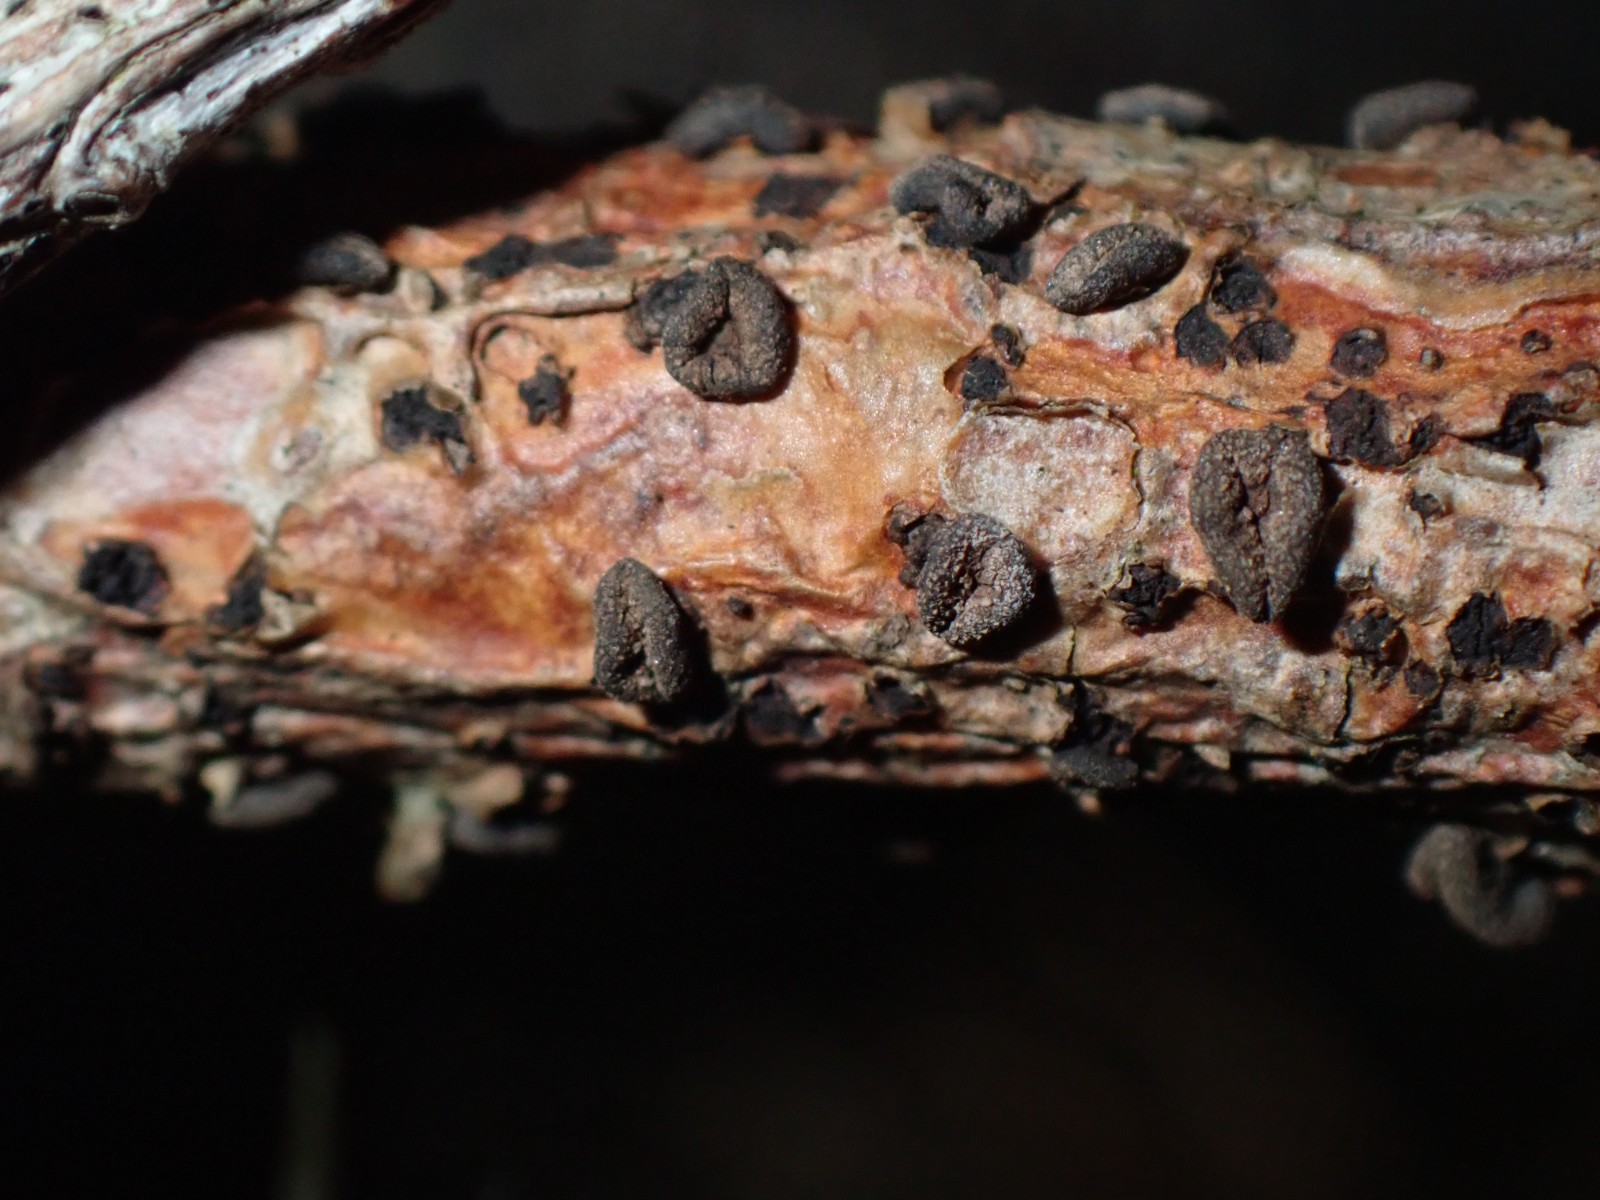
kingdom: Fungi
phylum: Ascomycota
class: Leotiomycetes
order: Helotiales
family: Cenangiaceae
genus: Cenangium
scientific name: Cenangium ferruginosum
